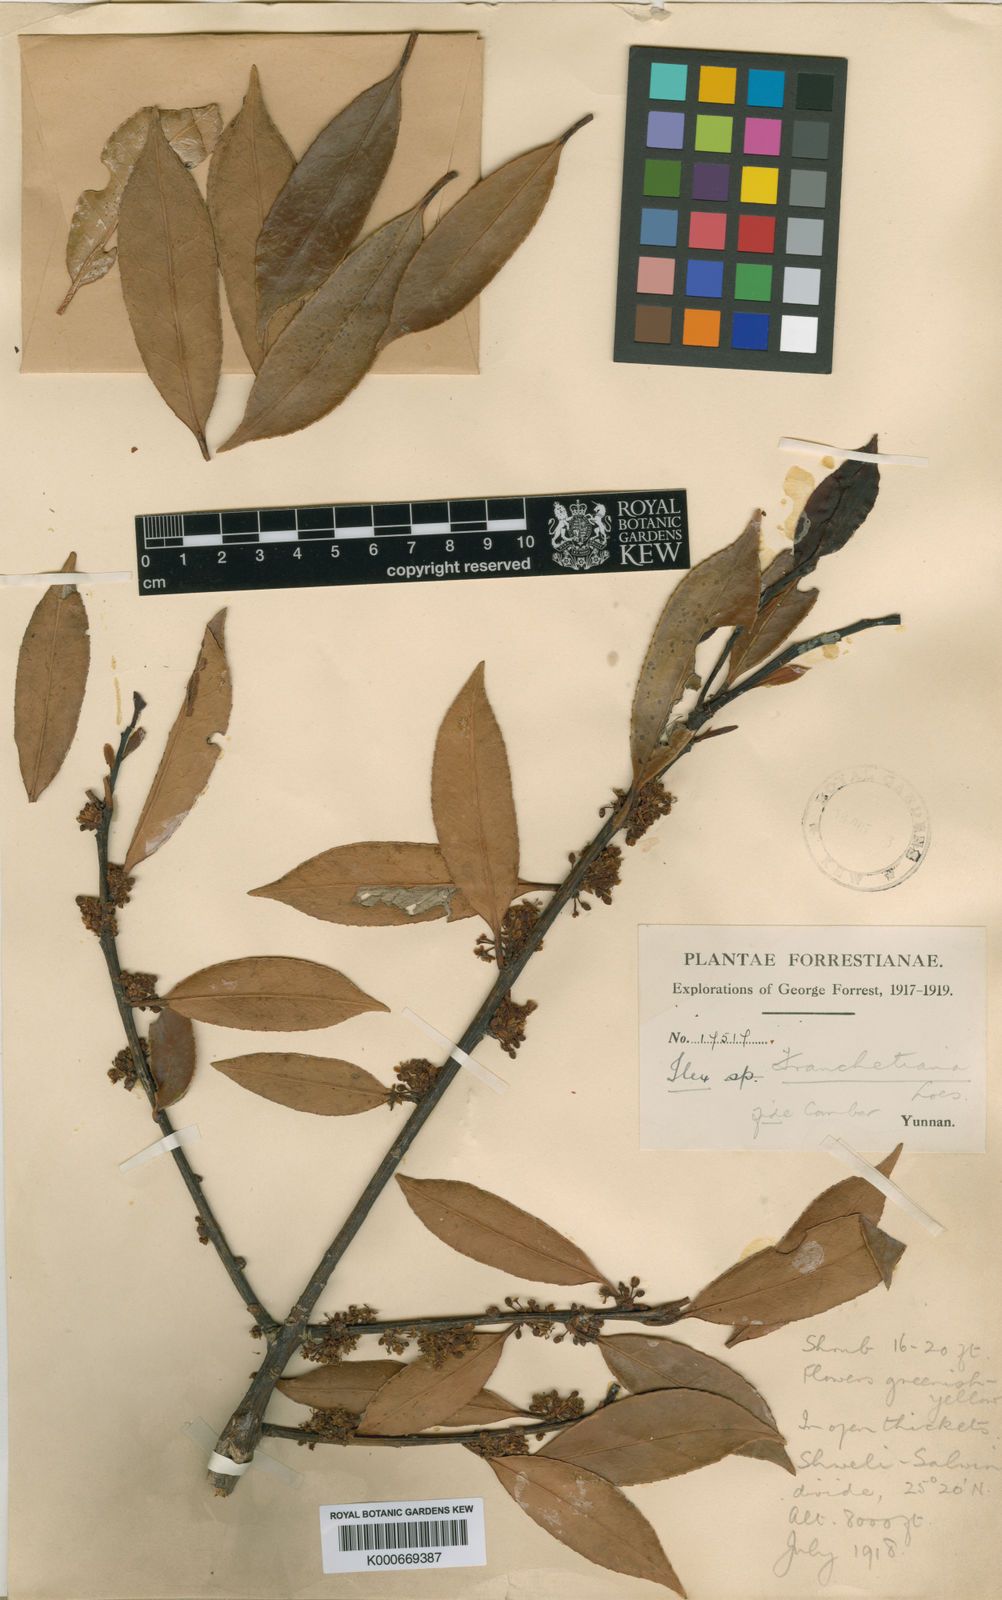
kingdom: Plantae
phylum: Tracheophyta
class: Magnoliopsida
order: Aquifoliales
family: Aquifoliaceae
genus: Ilex
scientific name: Ilex subodorata
